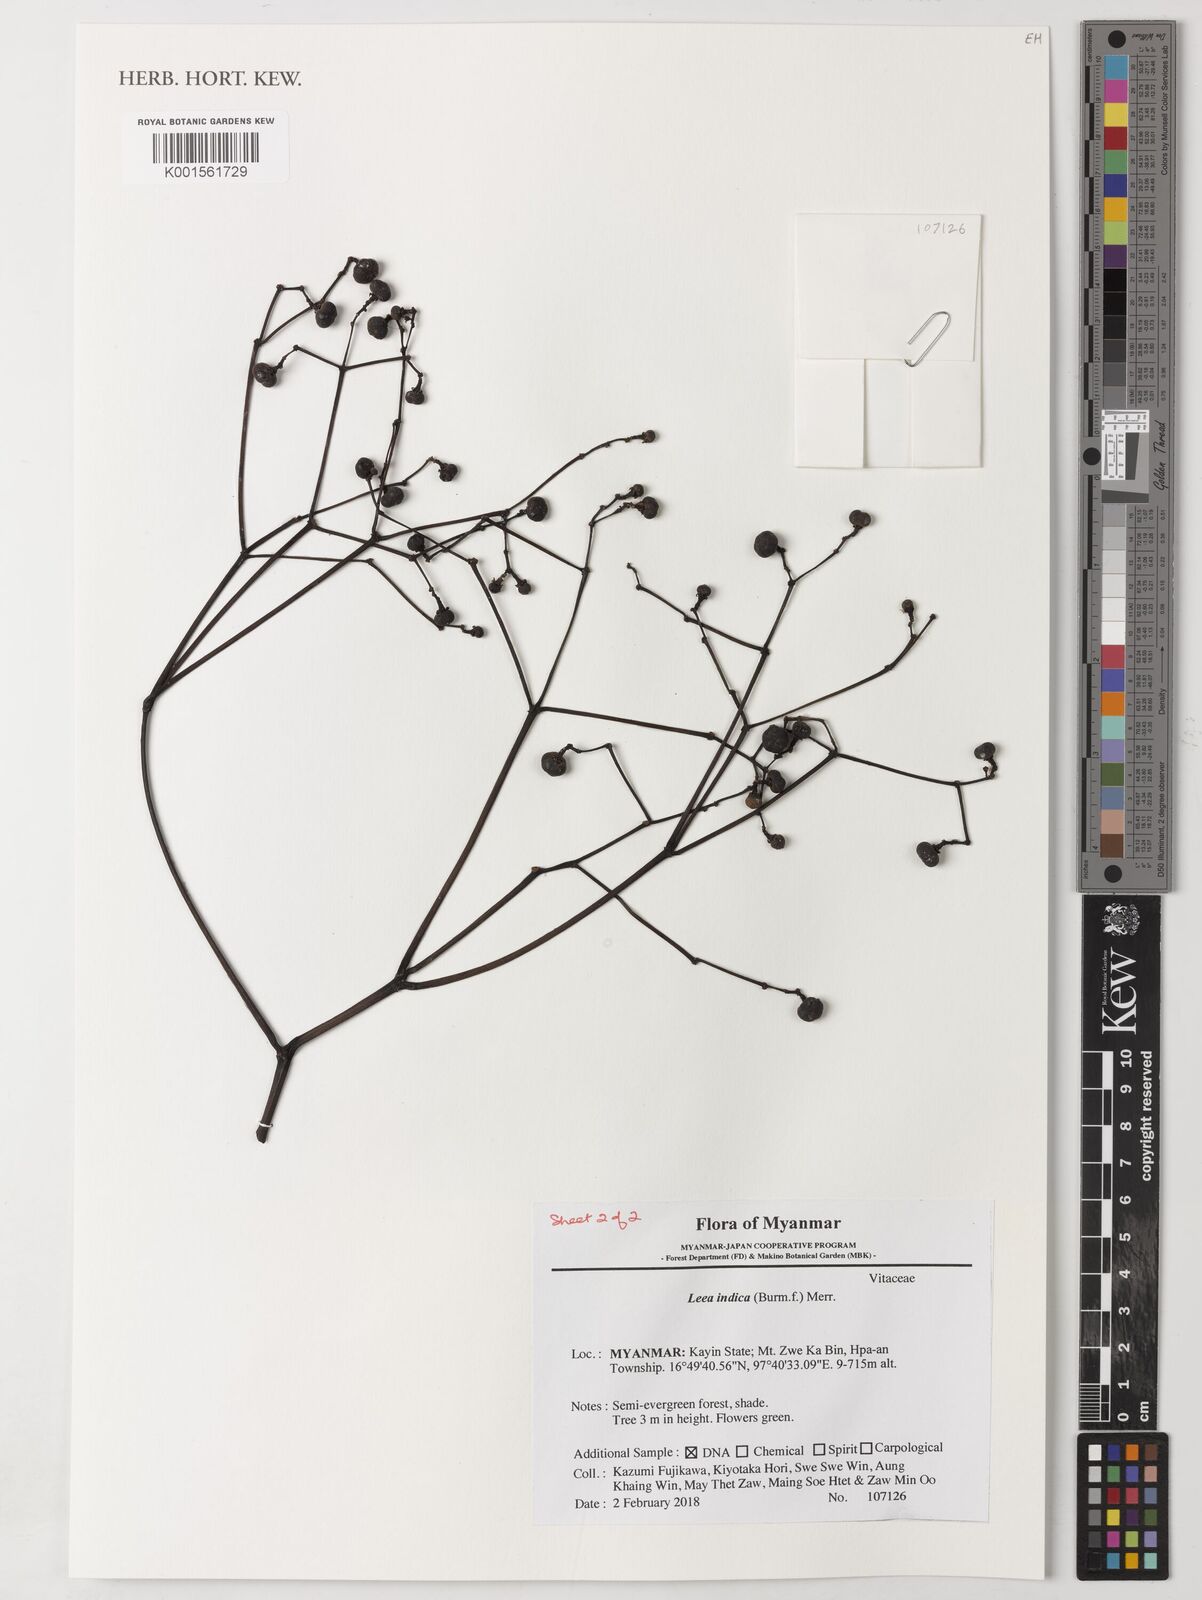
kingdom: Plantae
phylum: Tracheophyta
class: Magnoliopsida
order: Vitales
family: Vitaceae
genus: Leea
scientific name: Leea indica
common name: Bandicoot-berry
